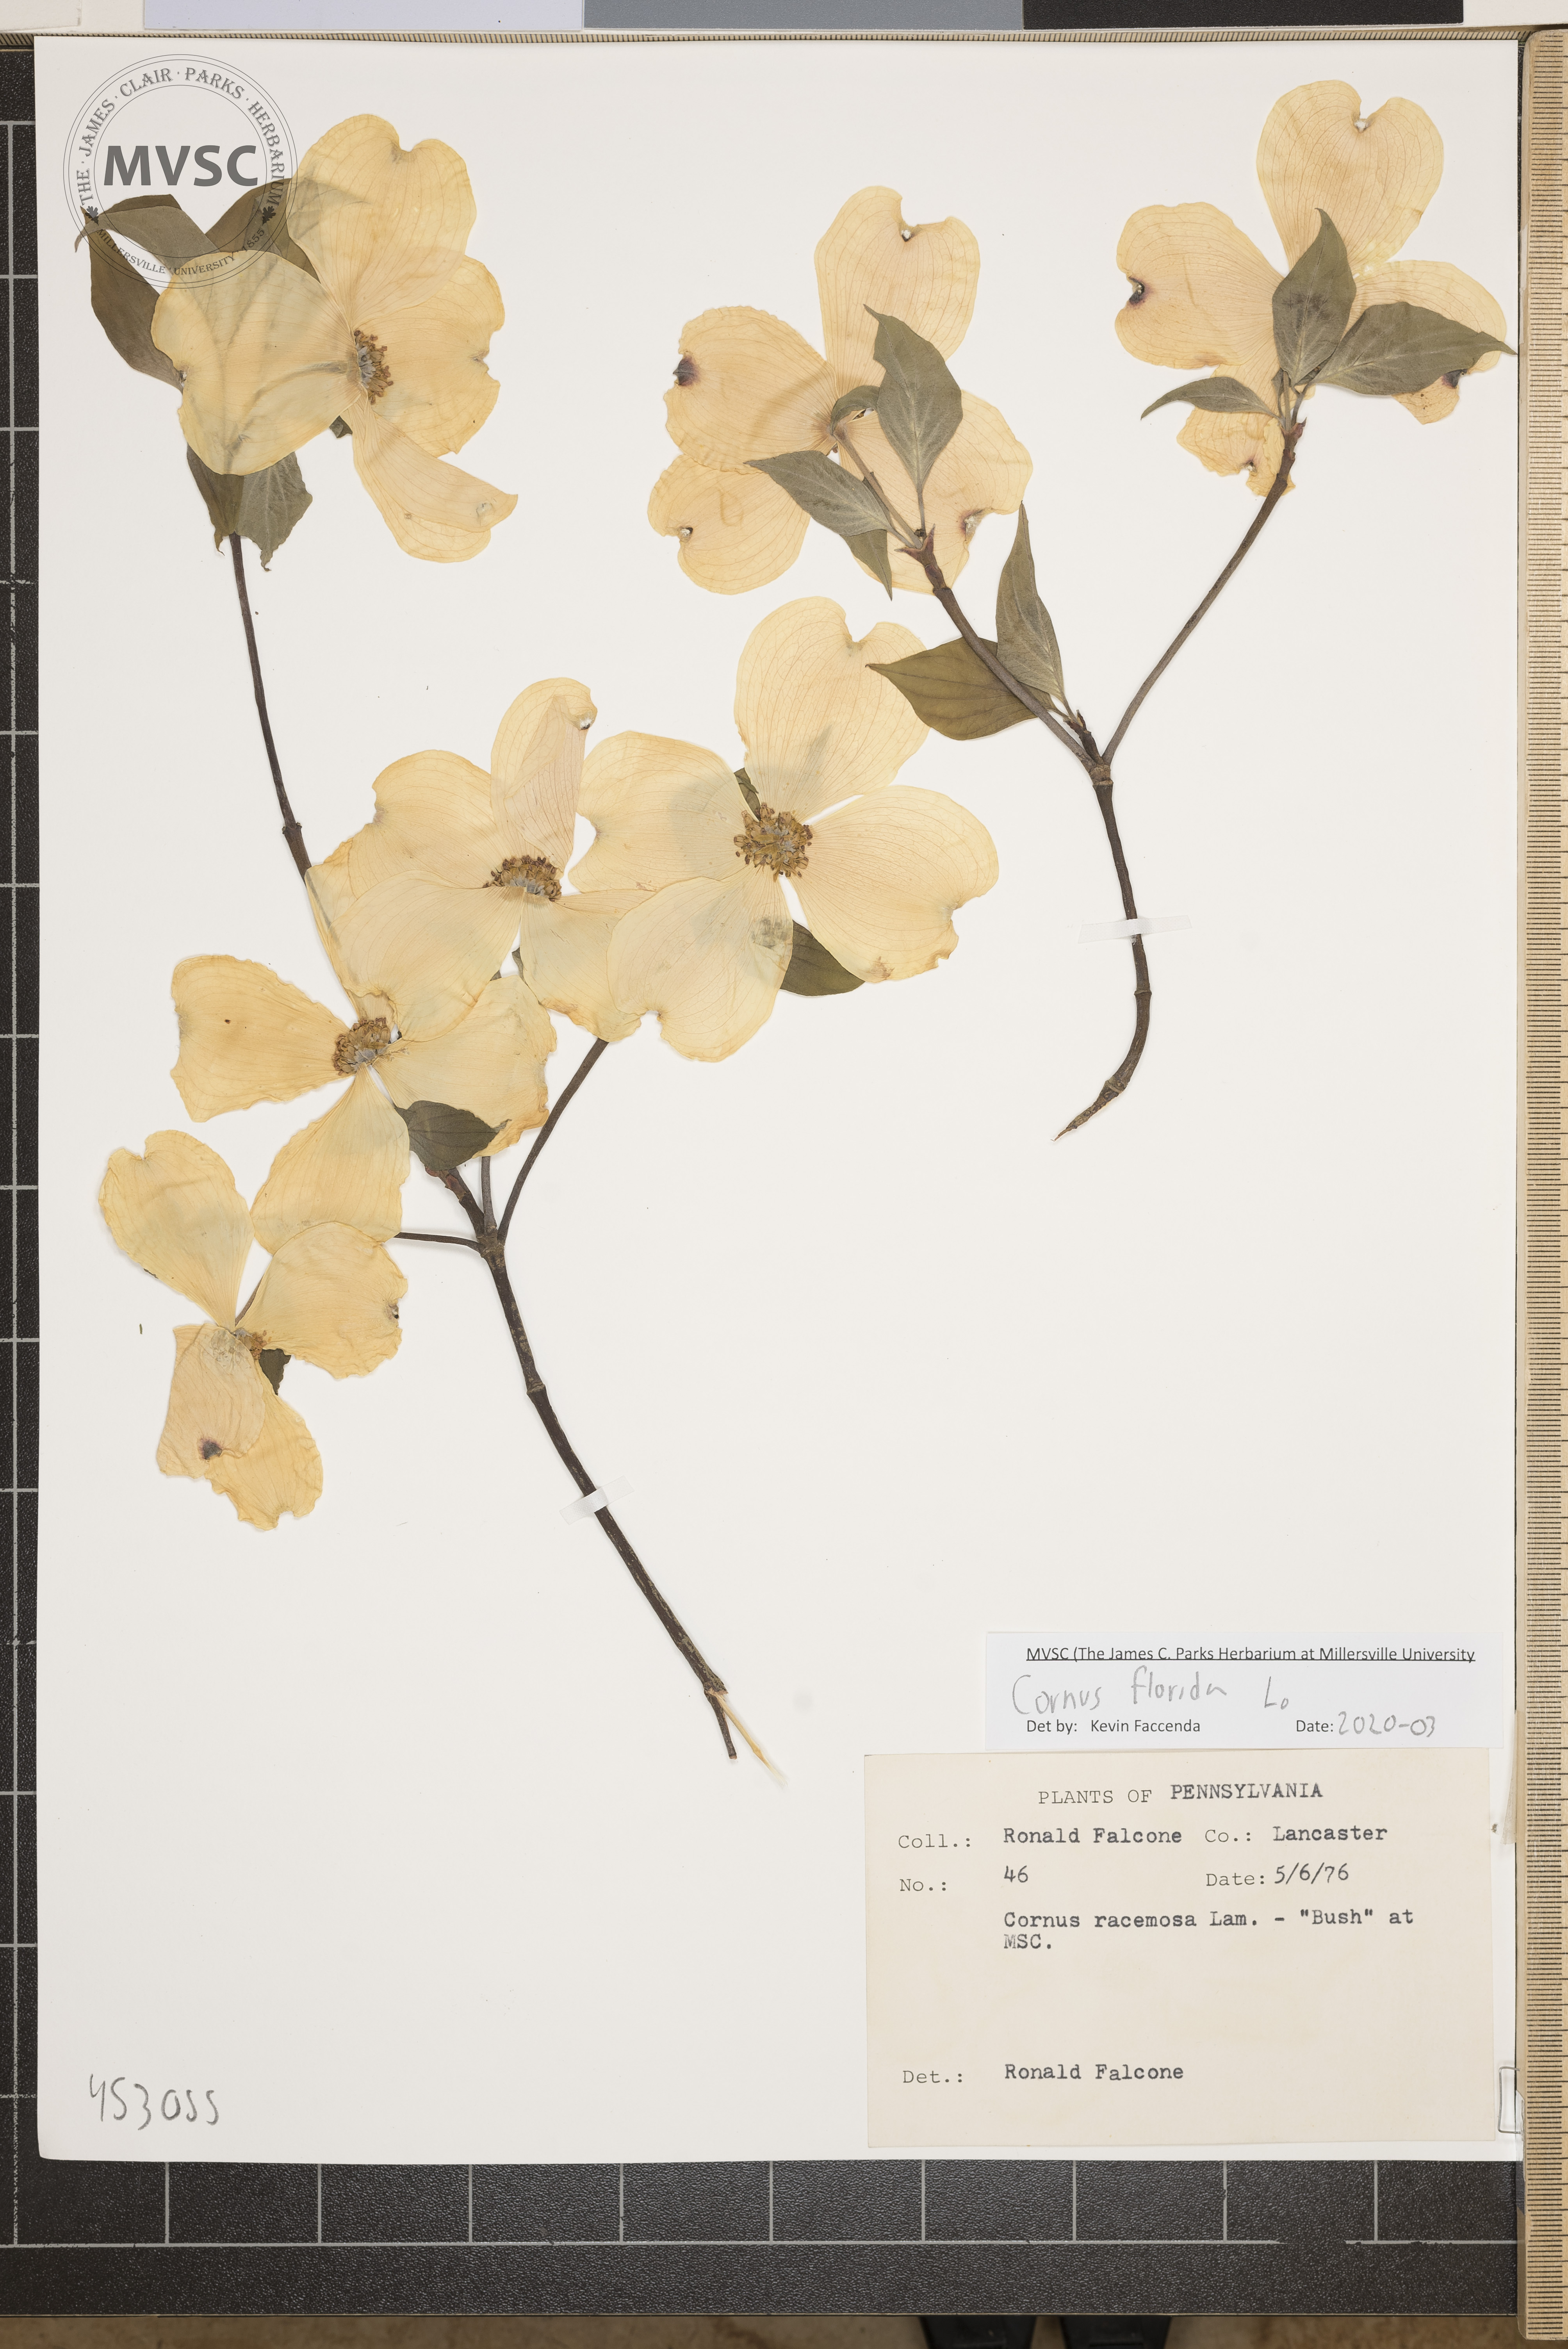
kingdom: Plantae
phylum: Tracheophyta
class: Magnoliopsida
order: Cornales
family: Cornaceae
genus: Cornus
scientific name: Cornus florida
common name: Flowering dogwood
